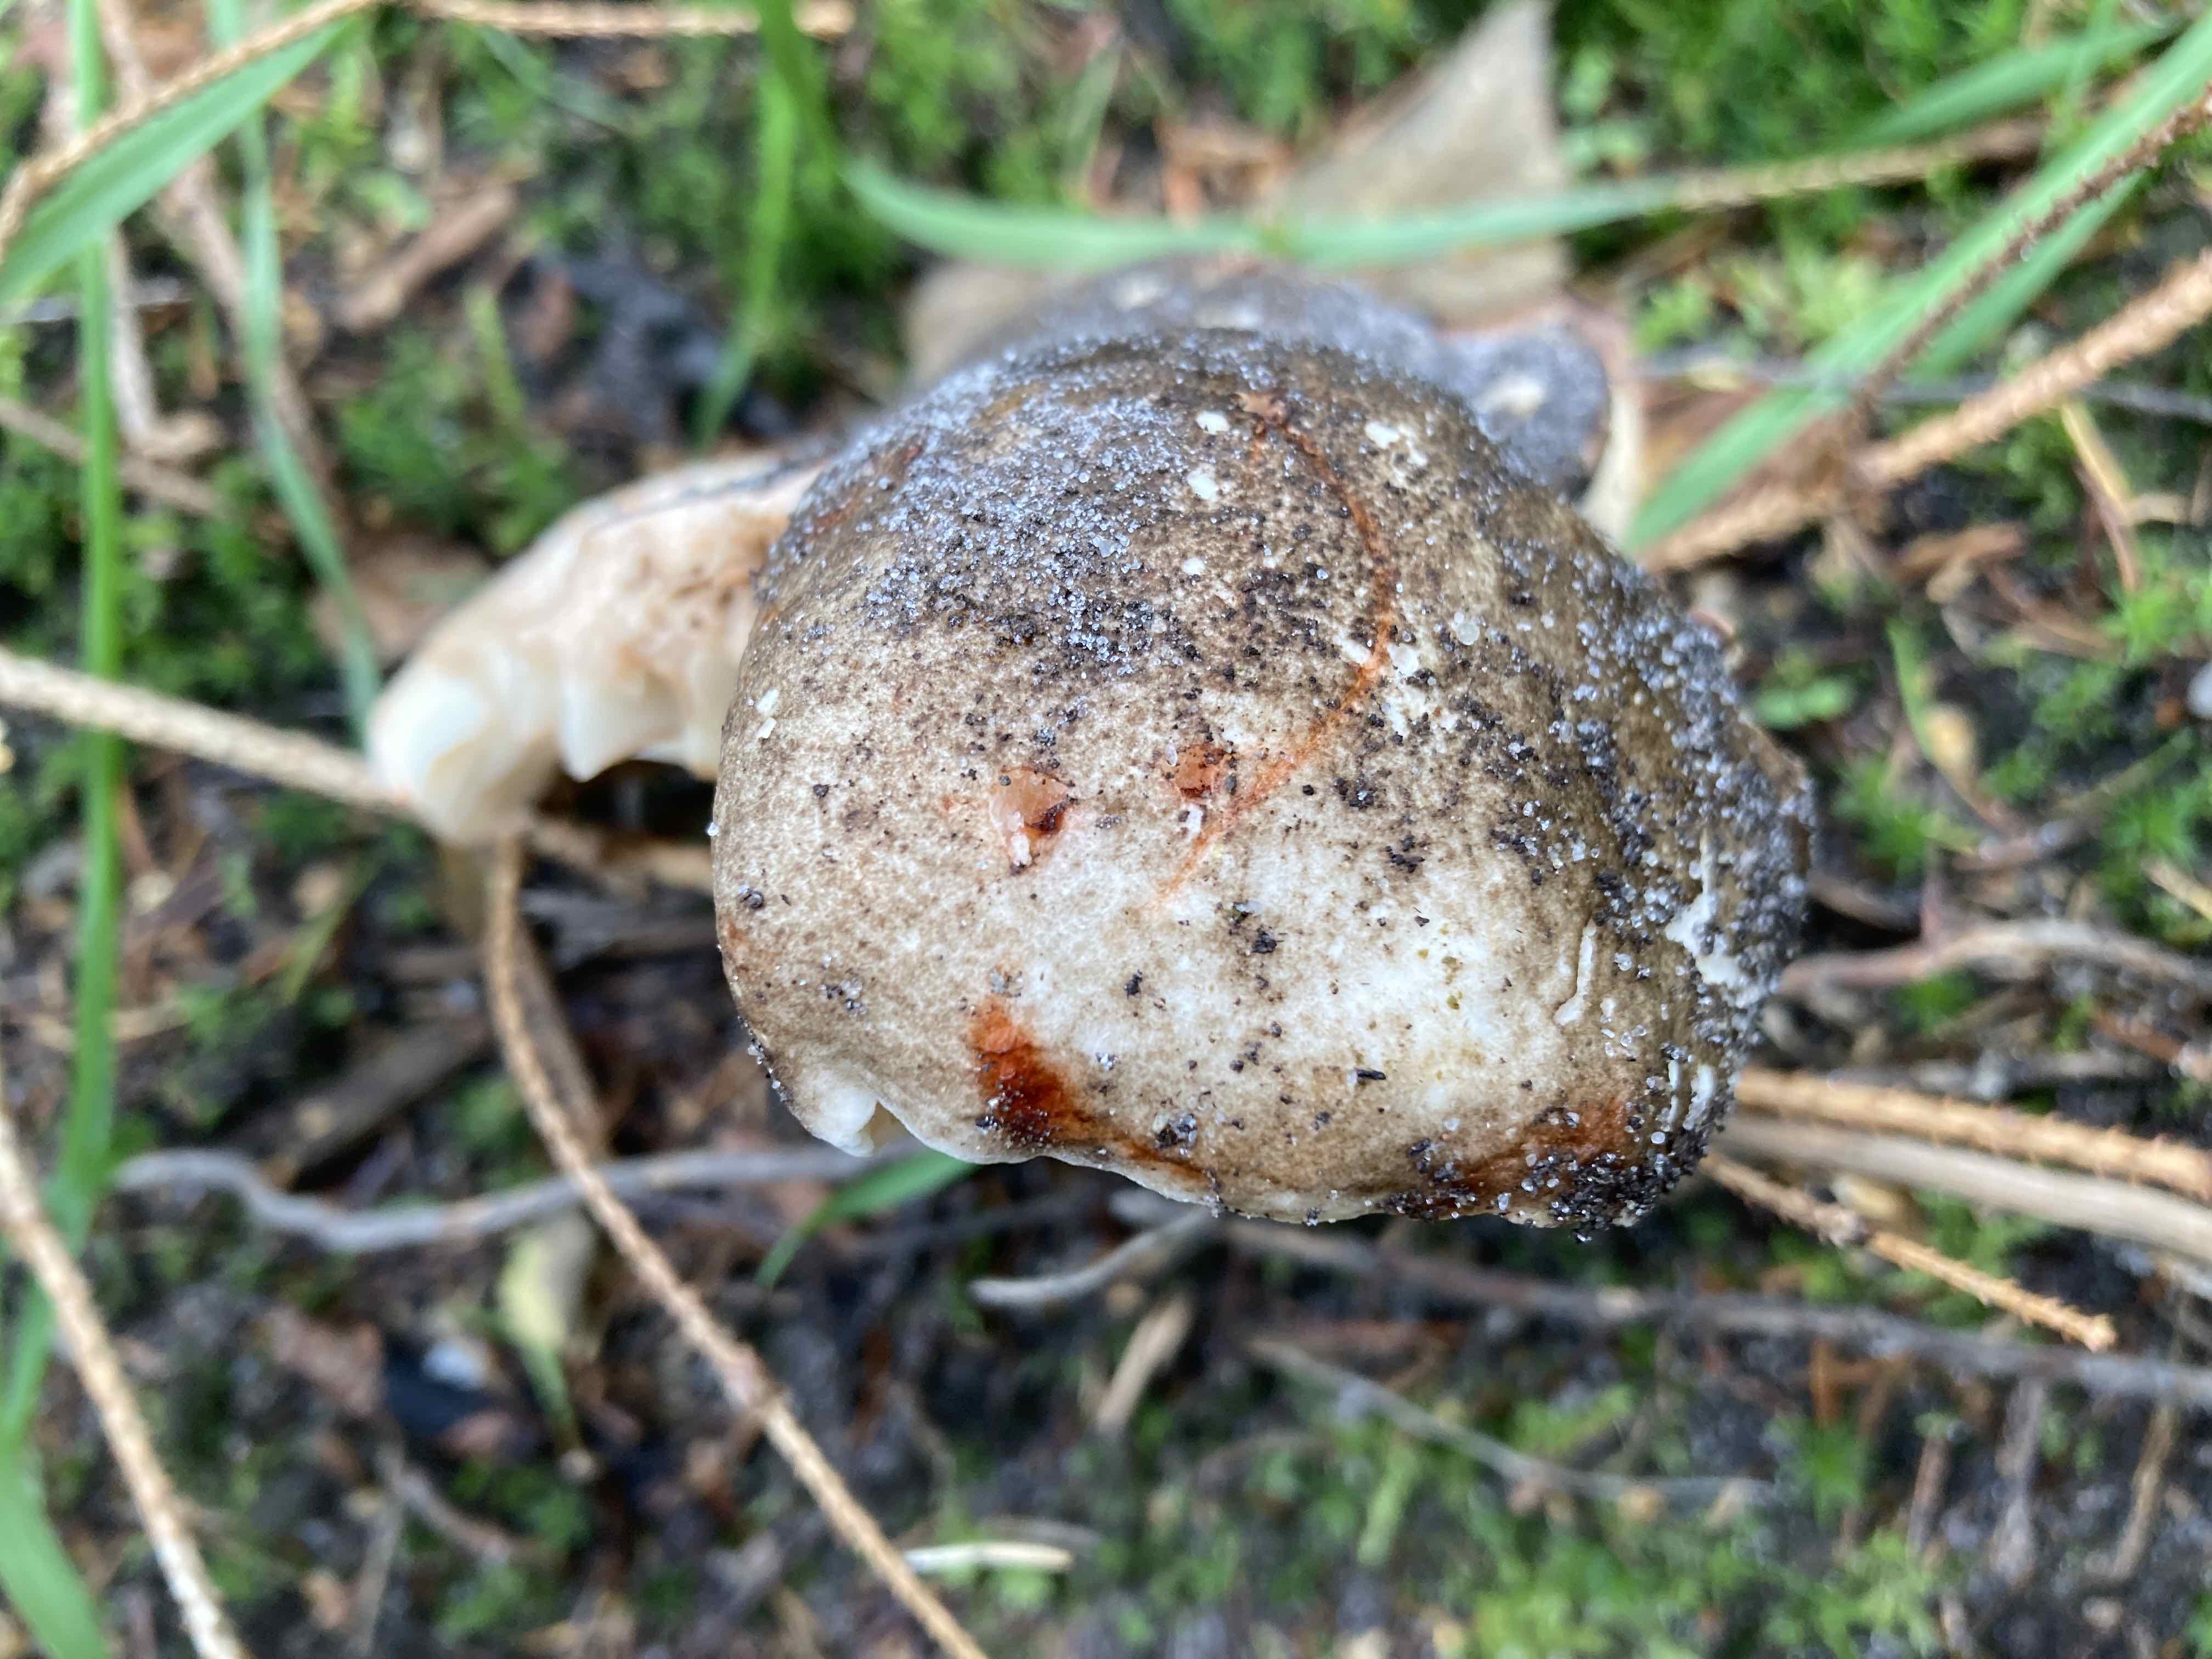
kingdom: Fungi
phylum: Basidiomycota
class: Agaricomycetes
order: Russulales
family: Russulaceae
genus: Russula
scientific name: Russula adusta
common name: sværtende skørhat
